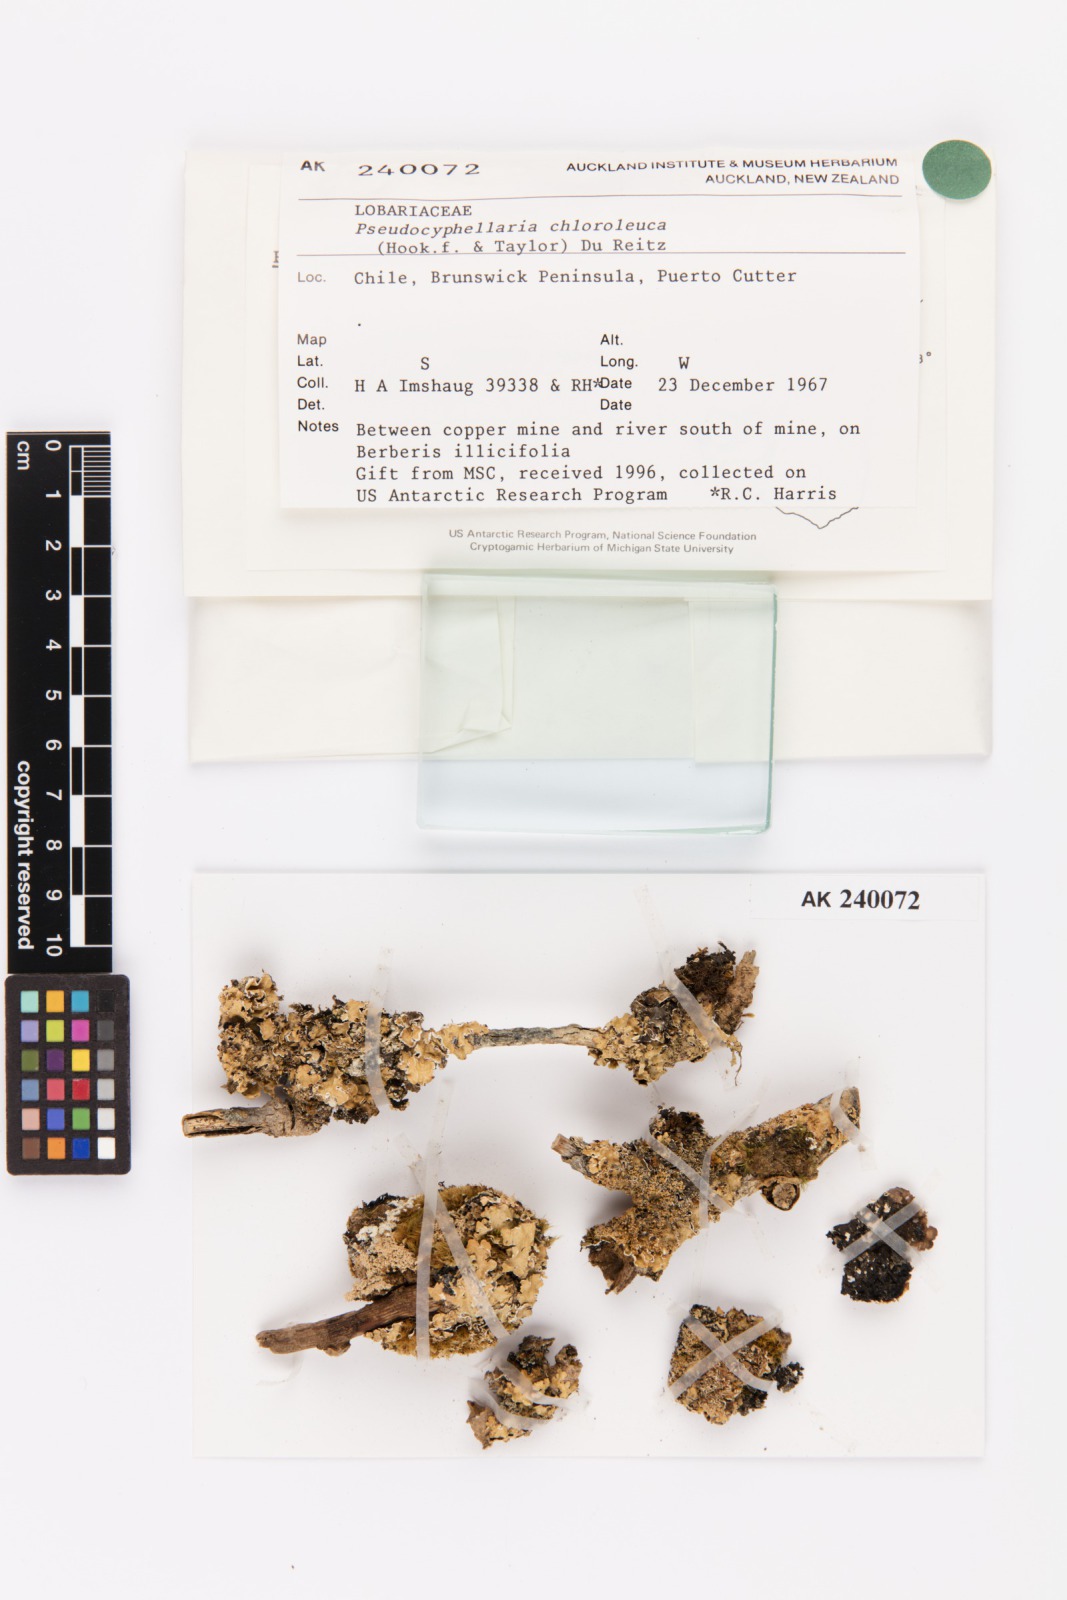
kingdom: Fungi
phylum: Ascomycota
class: Lecanoromycetes
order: Peltigerales
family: Lobariaceae
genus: Pseudocyphellaria
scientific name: Pseudocyphellaria chloroleuca
